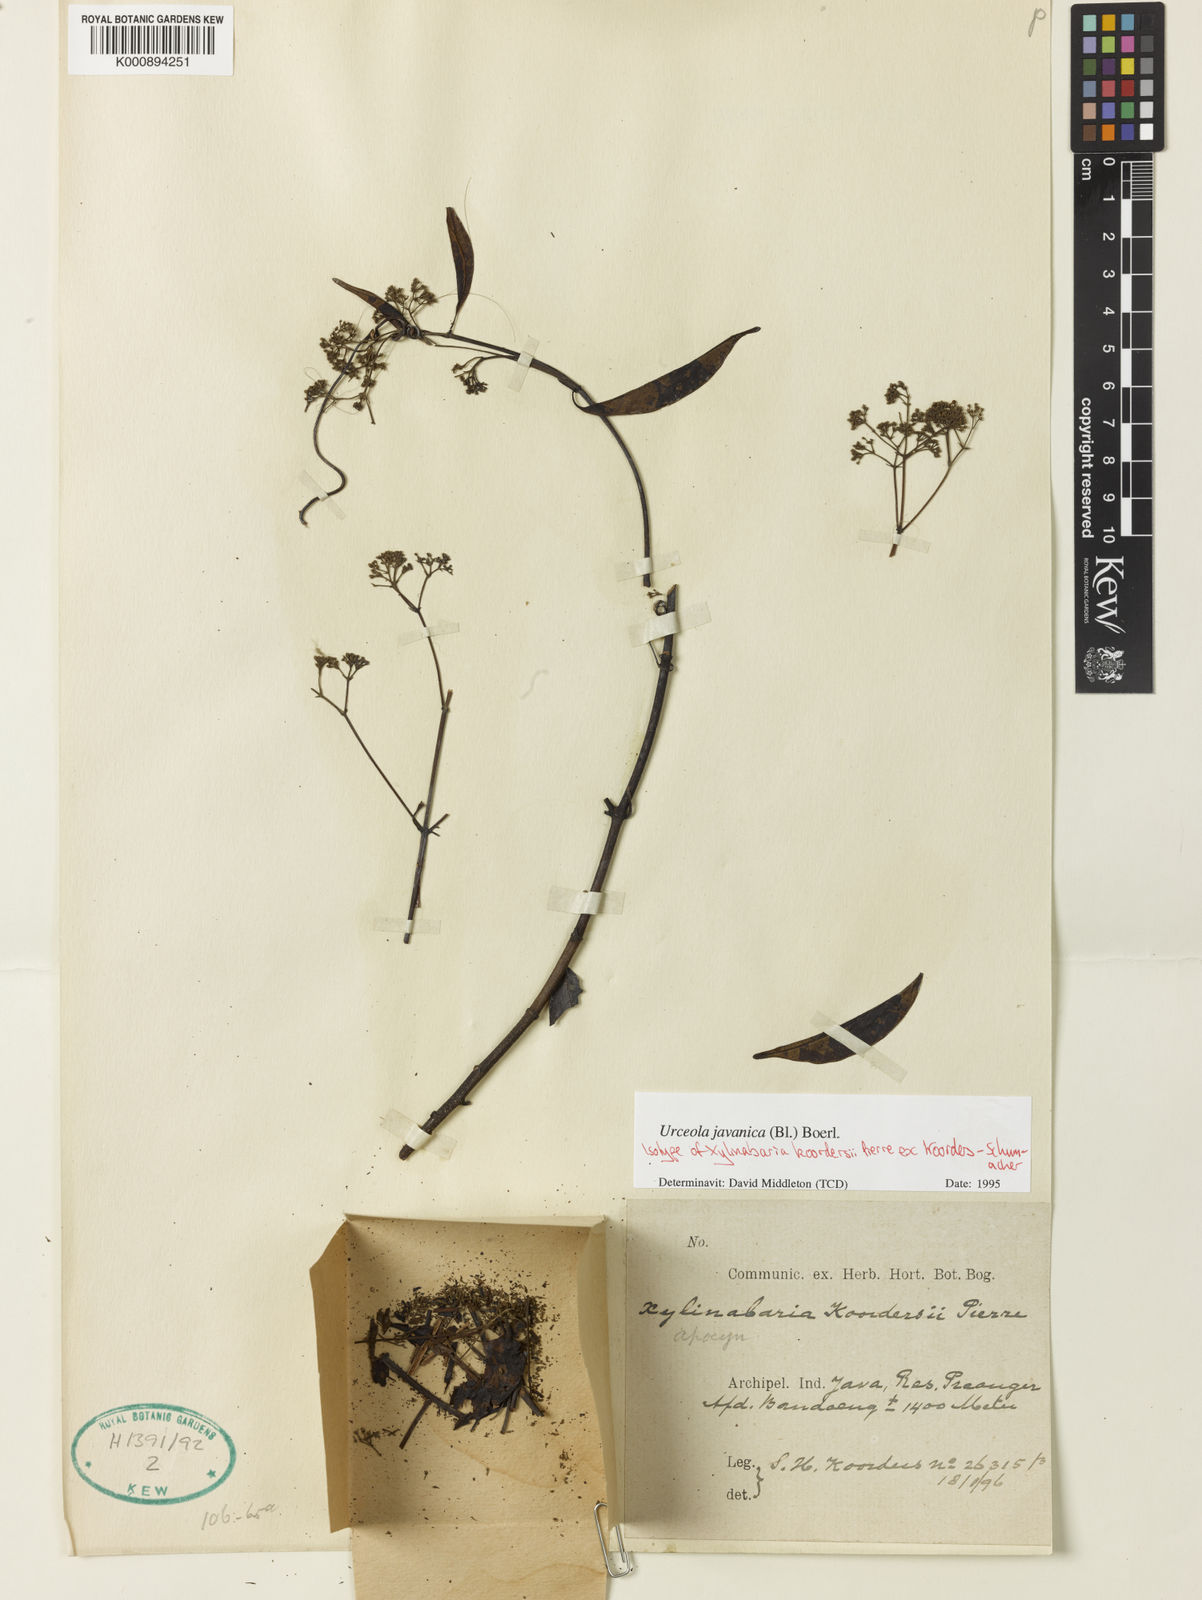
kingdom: Plantae
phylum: Tracheophyta
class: Magnoliopsida
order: Gentianales
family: Apocynaceae
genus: Urceola
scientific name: Urceola javanica
